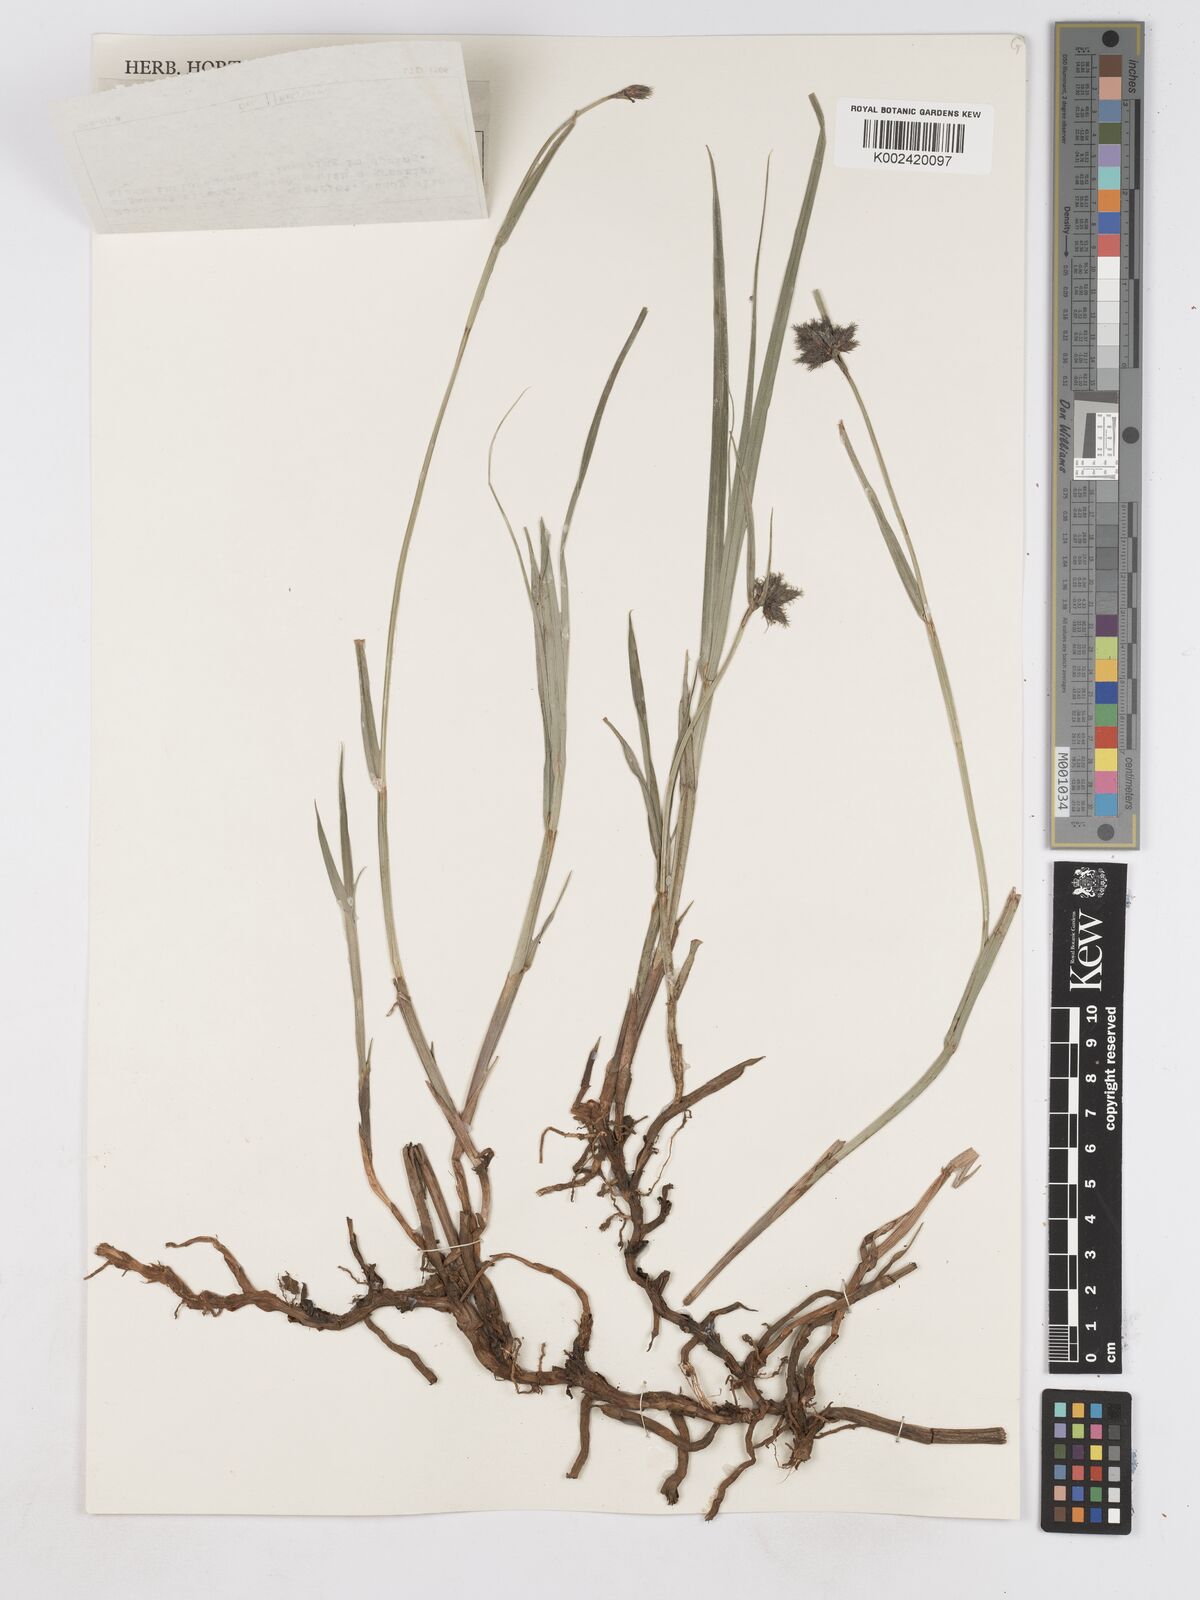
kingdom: Plantae
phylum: Tracheophyta
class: Liliopsida
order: Poales
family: Cyperaceae
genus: Fuirena
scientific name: Fuirena pubescens
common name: Hairy sedge
